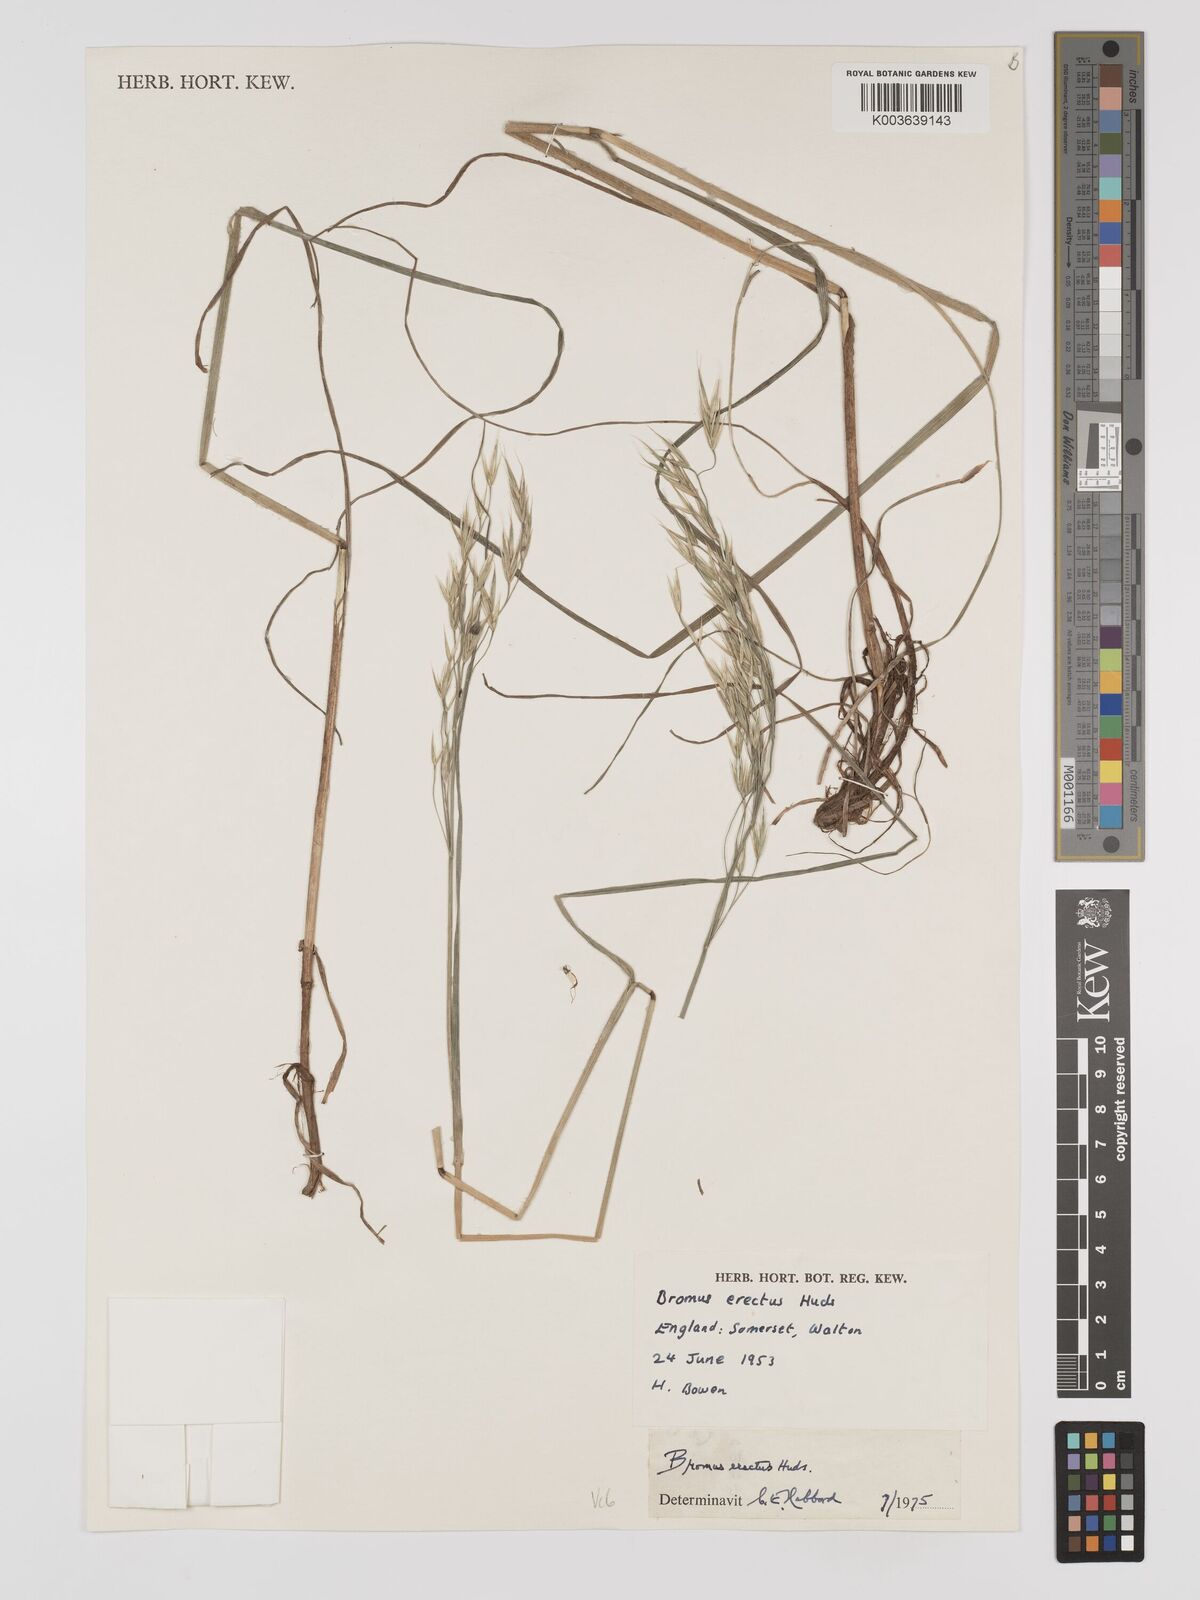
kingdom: Plantae
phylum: Tracheophyta
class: Liliopsida
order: Poales
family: Poaceae
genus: Bromus
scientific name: Bromus erectus
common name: Erect brome
